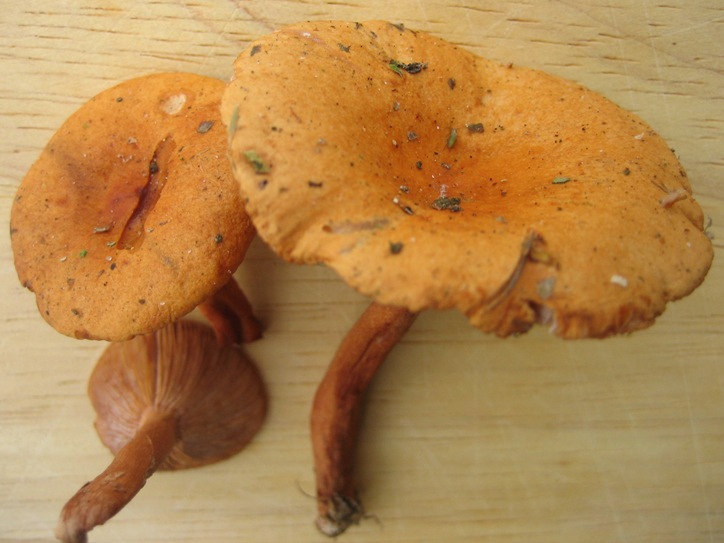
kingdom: Fungi
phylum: Basidiomycota
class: Agaricomycetes
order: Russulales
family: Russulaceae
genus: Lactarius
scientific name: Lactarius aurantiacus
